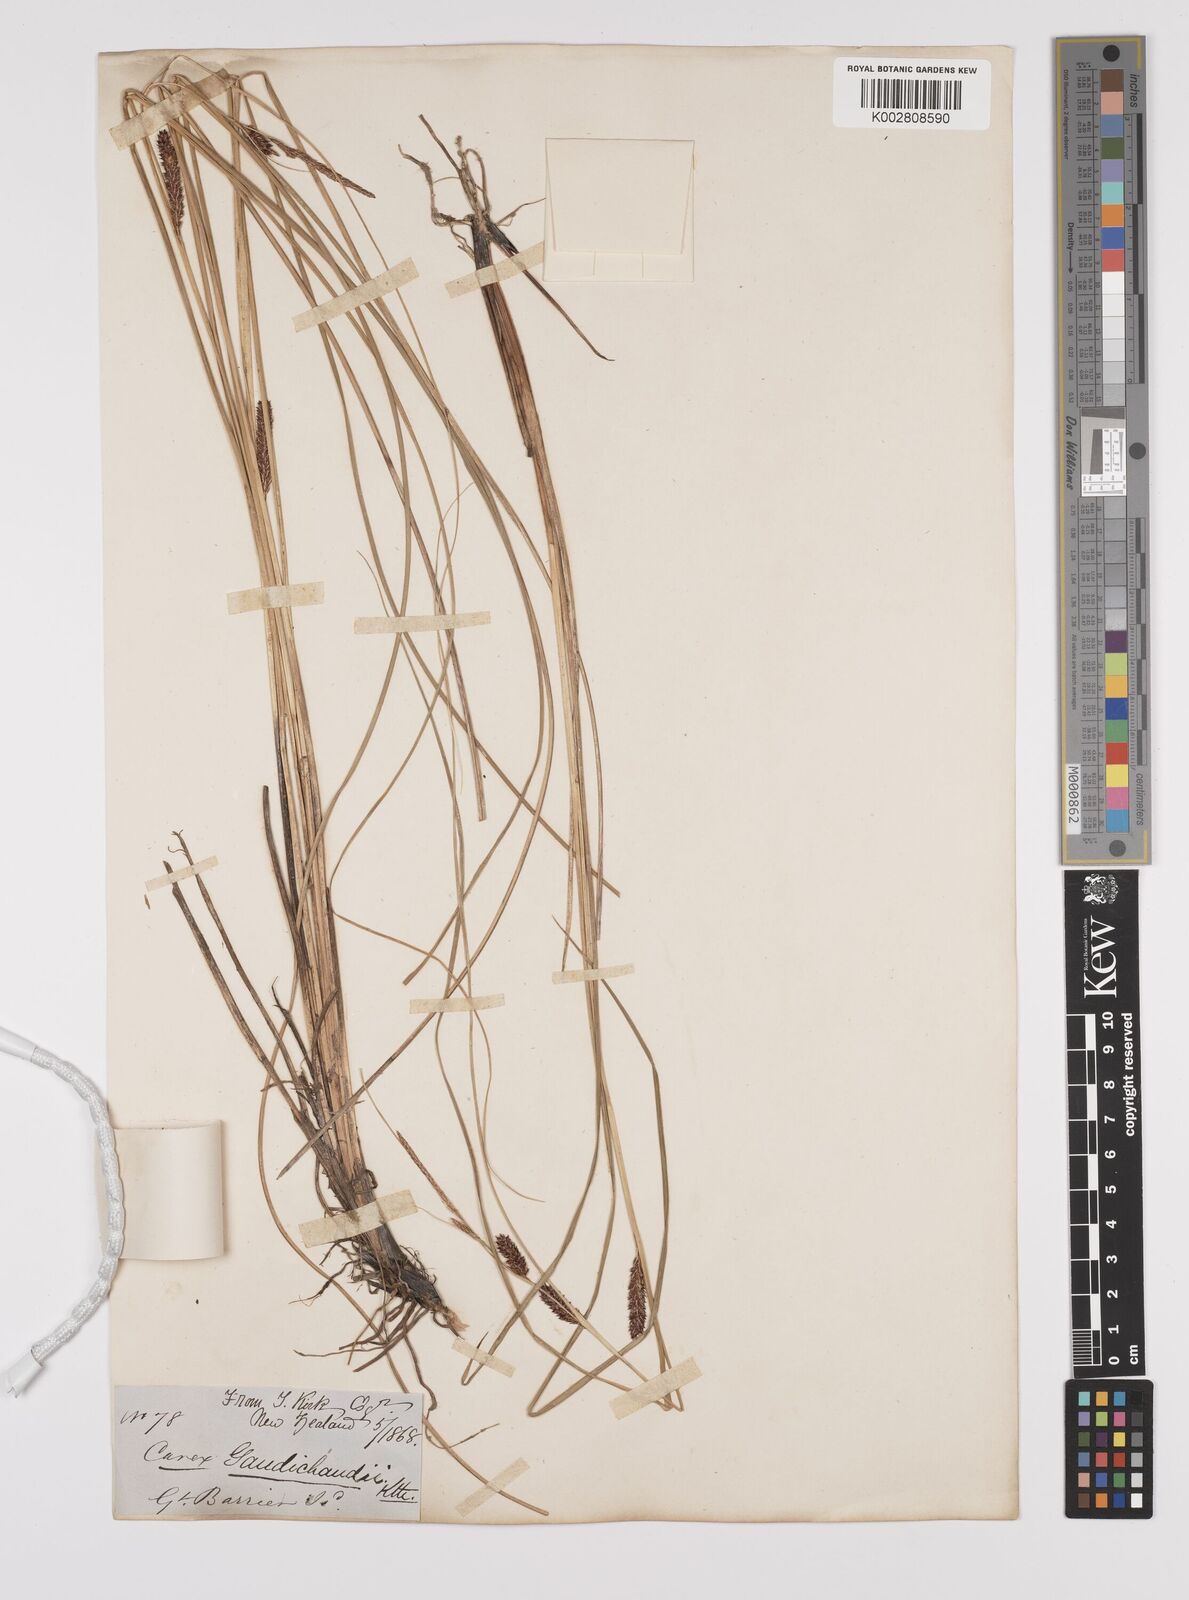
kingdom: Plantae
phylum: Tracheophyta
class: Liliopsida
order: Poales
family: Cyperaceae
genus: Carex
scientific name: Carex flagellifera
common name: Glen murray tussock
